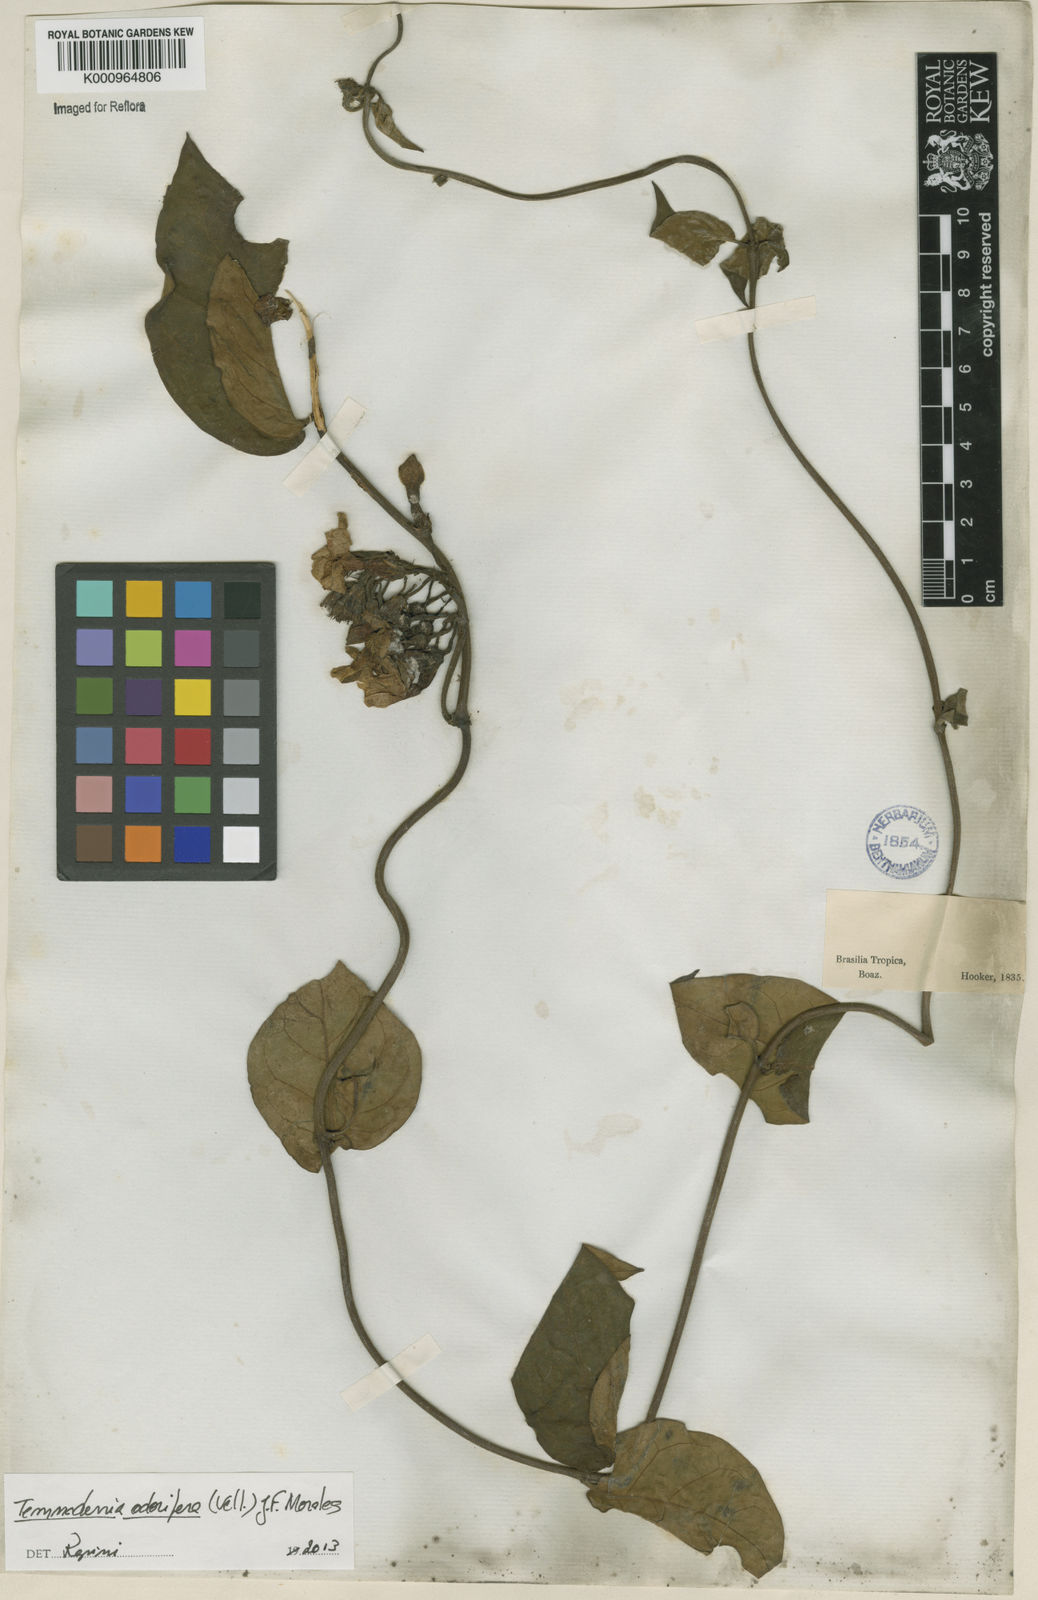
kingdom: Plantae
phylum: Tracheophyta
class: Magnoliopsida
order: Gentianales
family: Apocynaceae
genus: Temnadenia
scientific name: Temnadenia odorifera
